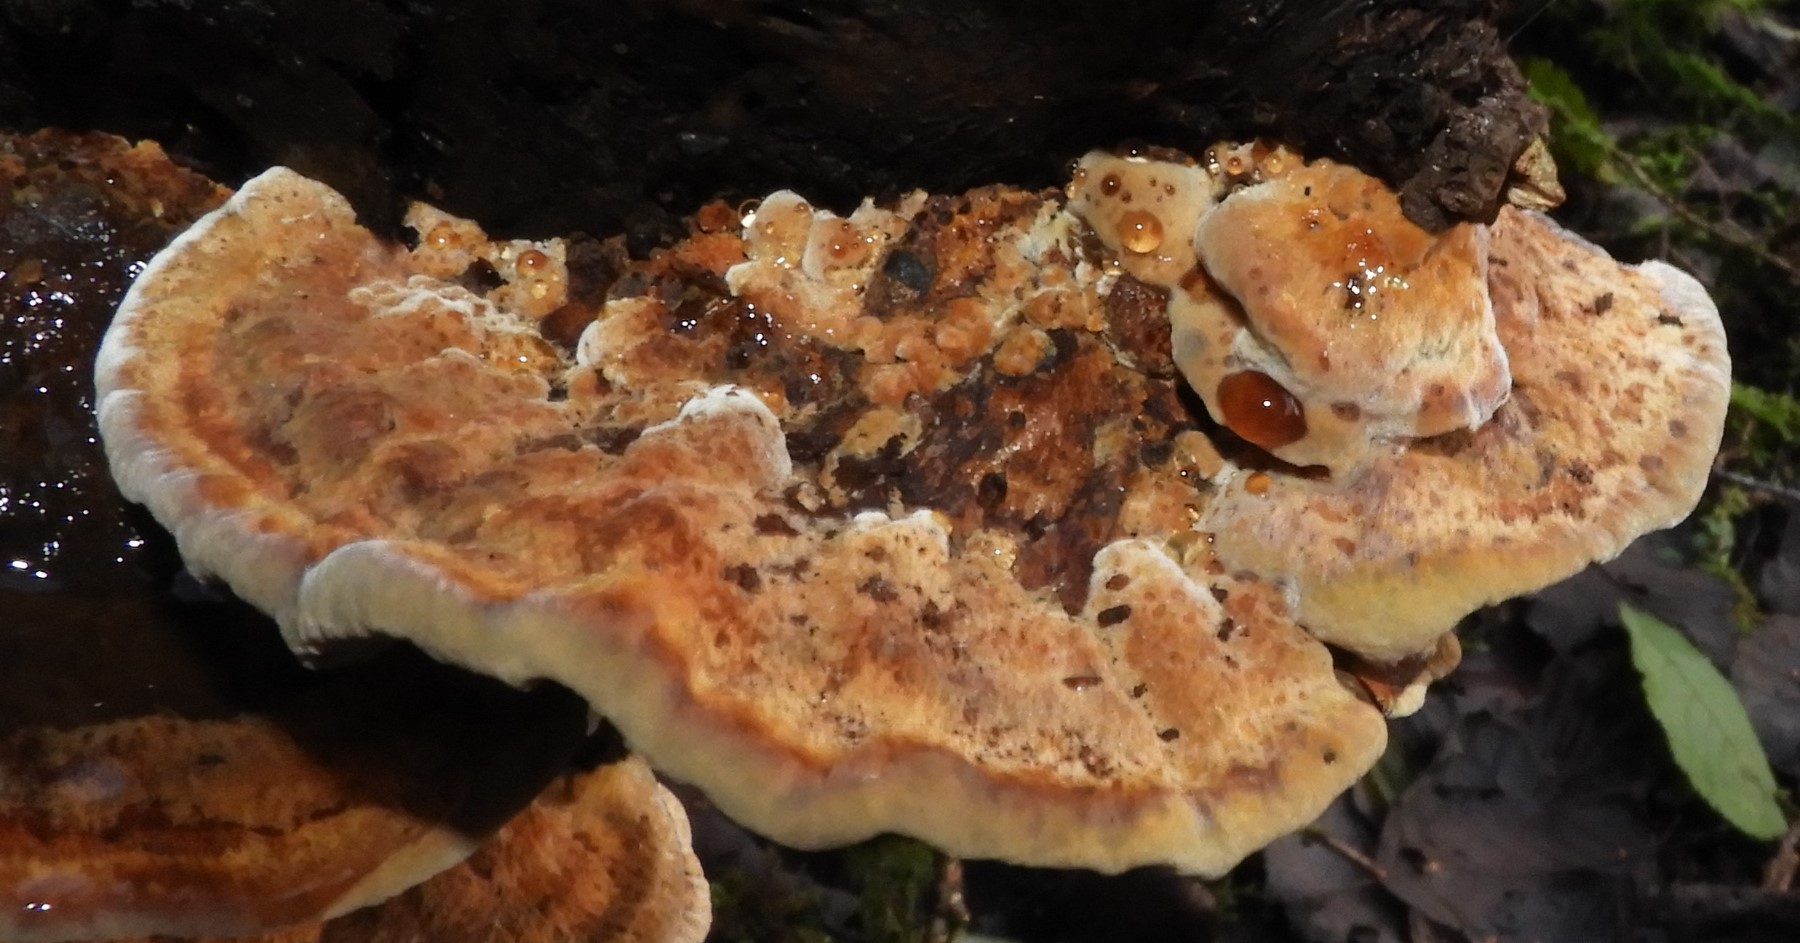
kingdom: Fungi
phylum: Basidiomycota
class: Agaricomycetes
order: Hymenochaetales
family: Hymenochaetaceae
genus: Xanthoporia
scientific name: Xanthoporia radiata
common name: elle-spejlporesvamp
